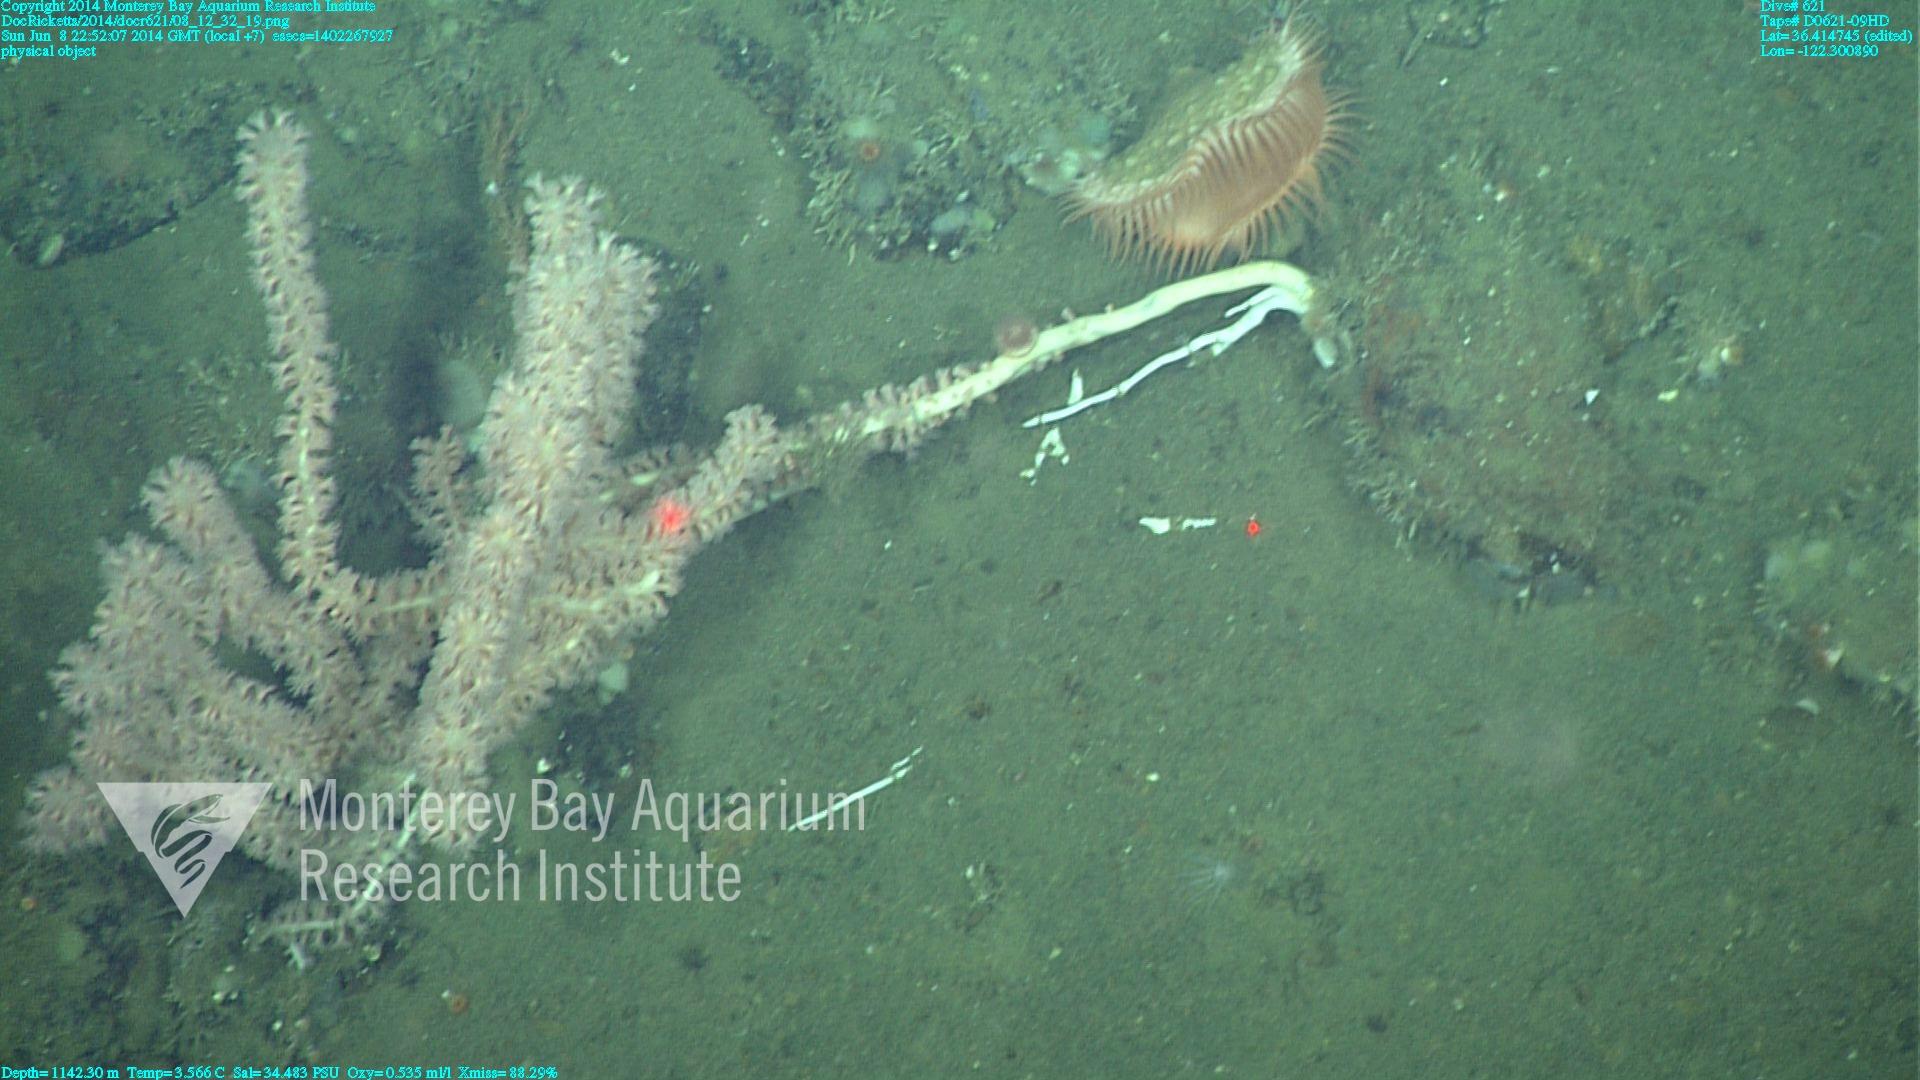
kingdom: Animalia
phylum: Cnidaria
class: Anthozoa
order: Scleralcyonacea
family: Keratoisididae
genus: Keratoisis
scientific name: Keratoisis
